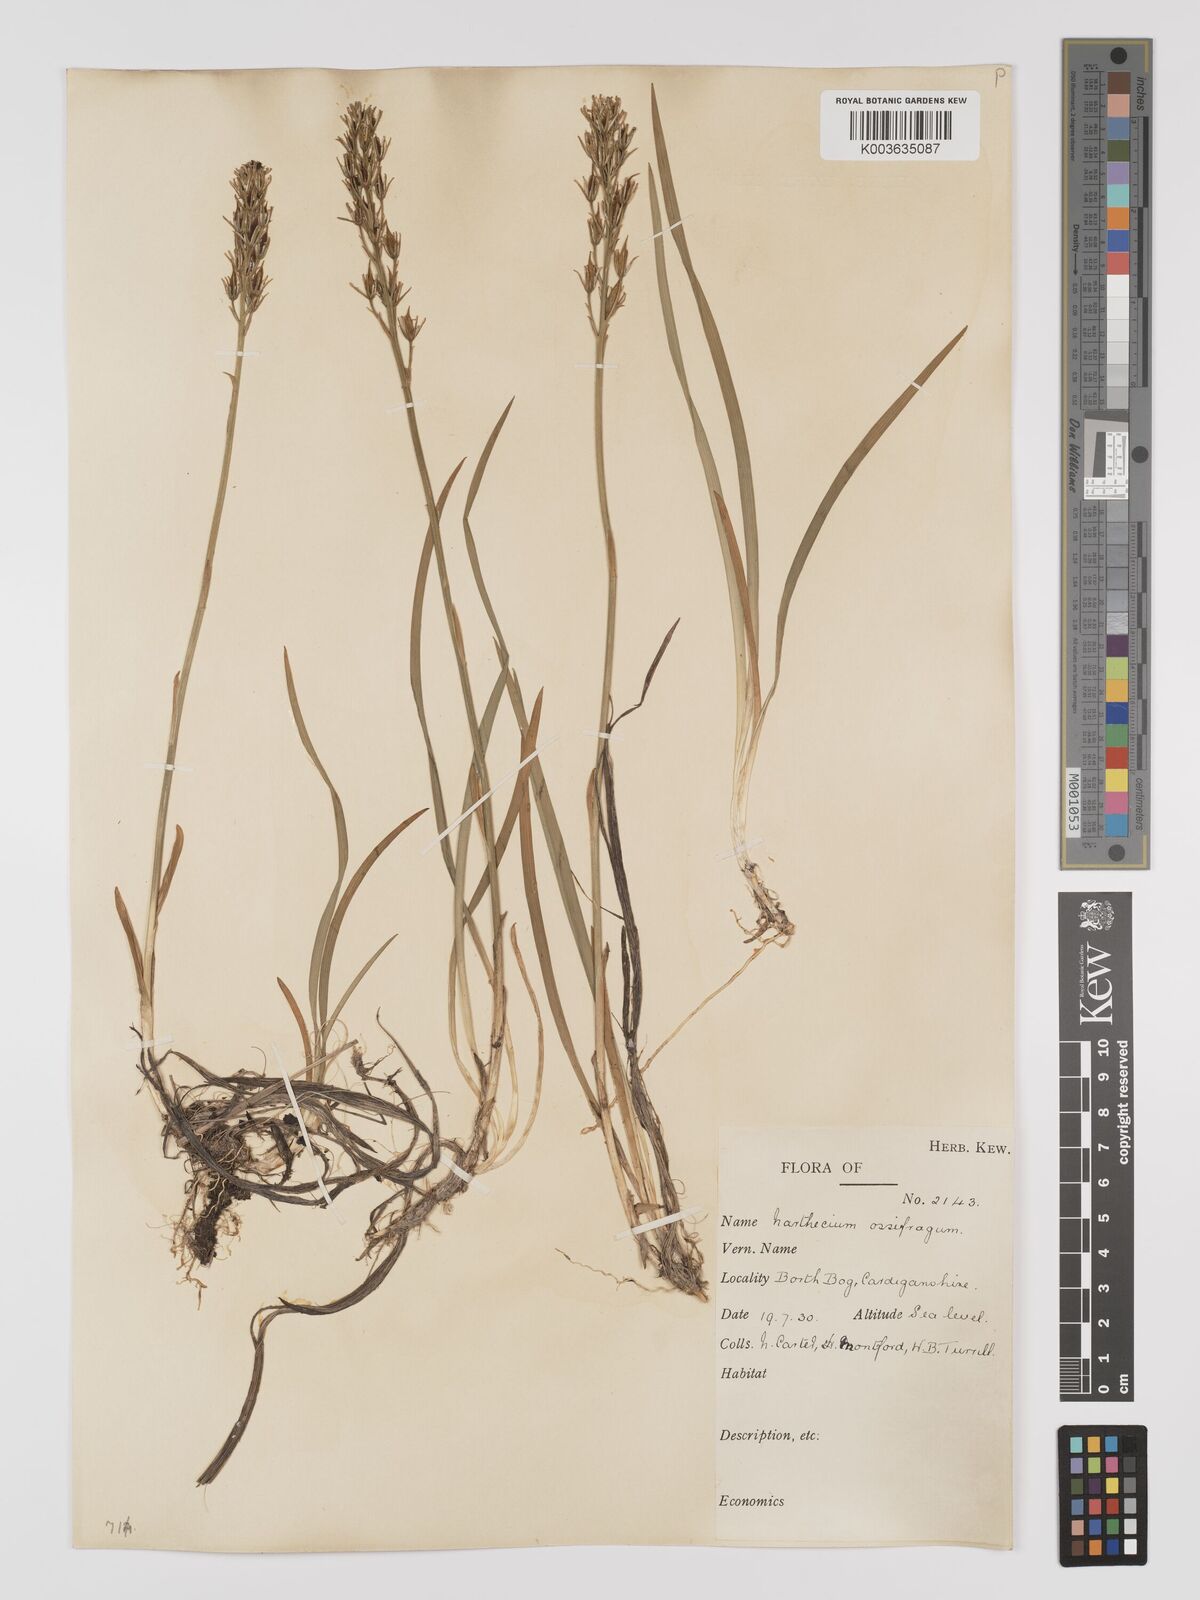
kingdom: Plantae
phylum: Tracheophyta
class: Liliopsida
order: Dioscoreales
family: Nartheciaceae
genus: Narthecium
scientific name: Narthecium
